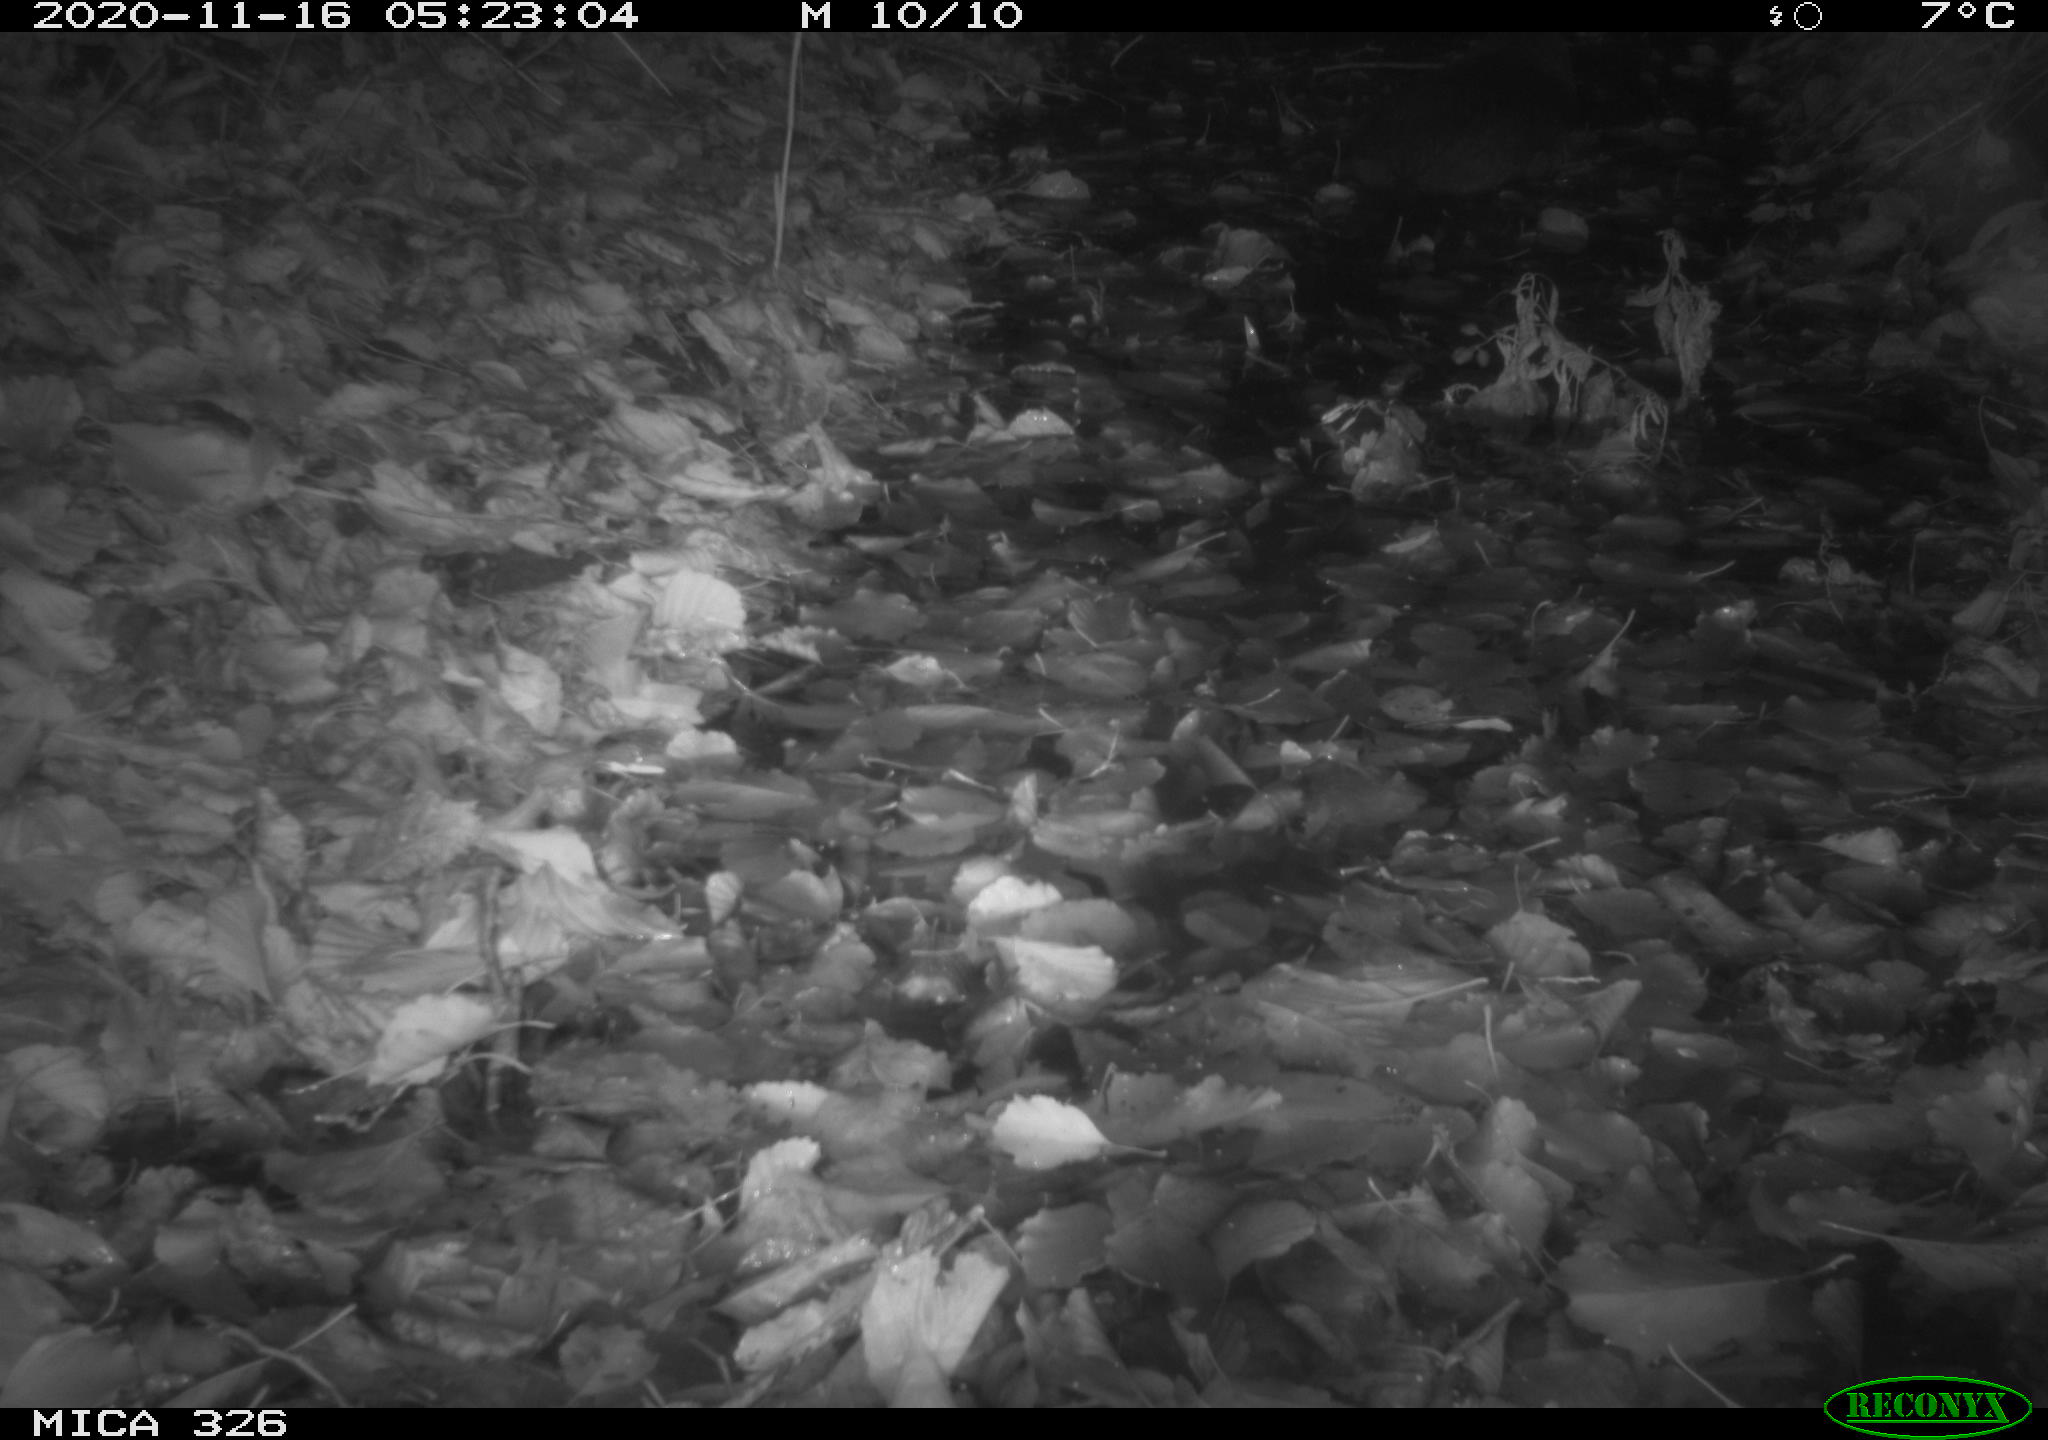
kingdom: Animalia
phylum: Chordata
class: Mammalia
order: Rodentia
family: Myocastoridae
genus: Myocastor
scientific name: Myocastor coypus
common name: Coypu
